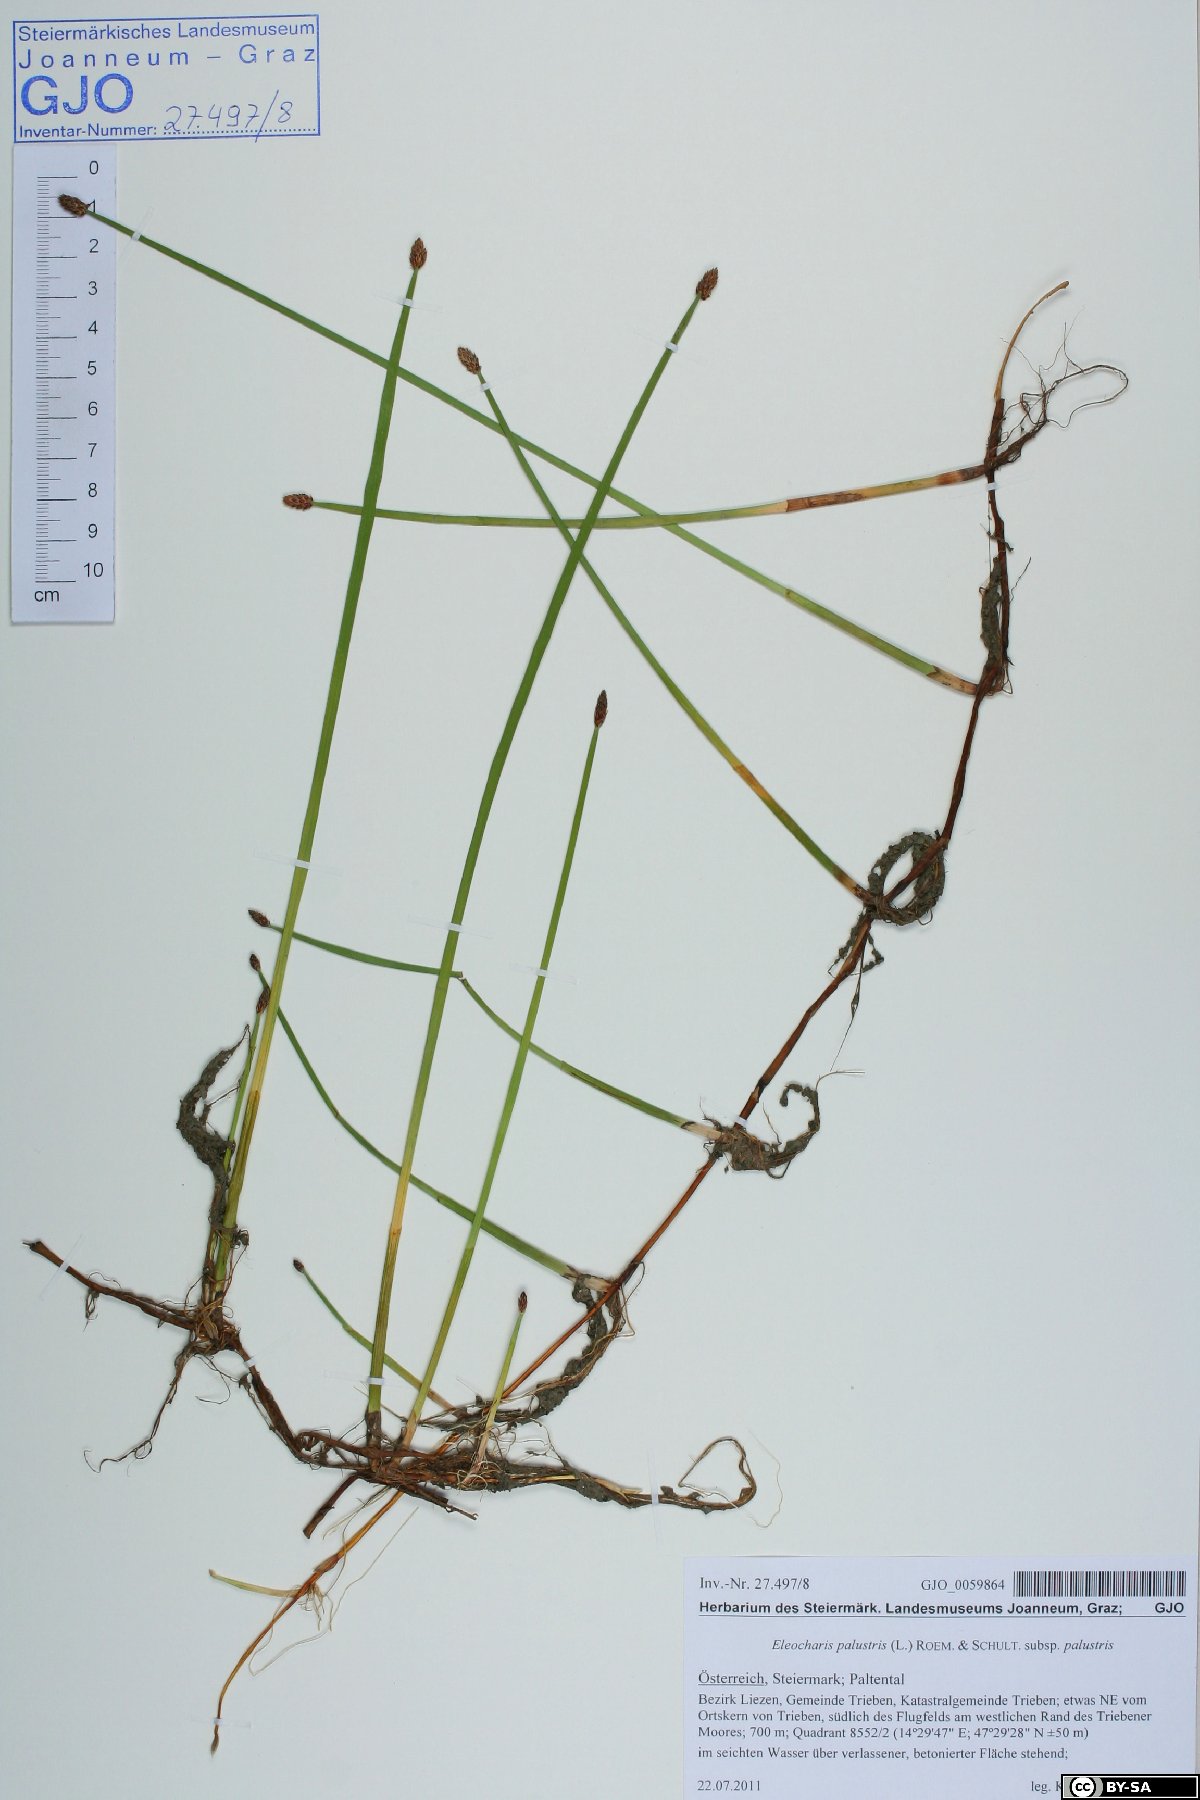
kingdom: Plantae
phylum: Tracheophyta
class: Liliopsida
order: Poales
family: Cyperaceae
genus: Eleocharis
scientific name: Eleocharis palustris
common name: Common spike-rush
